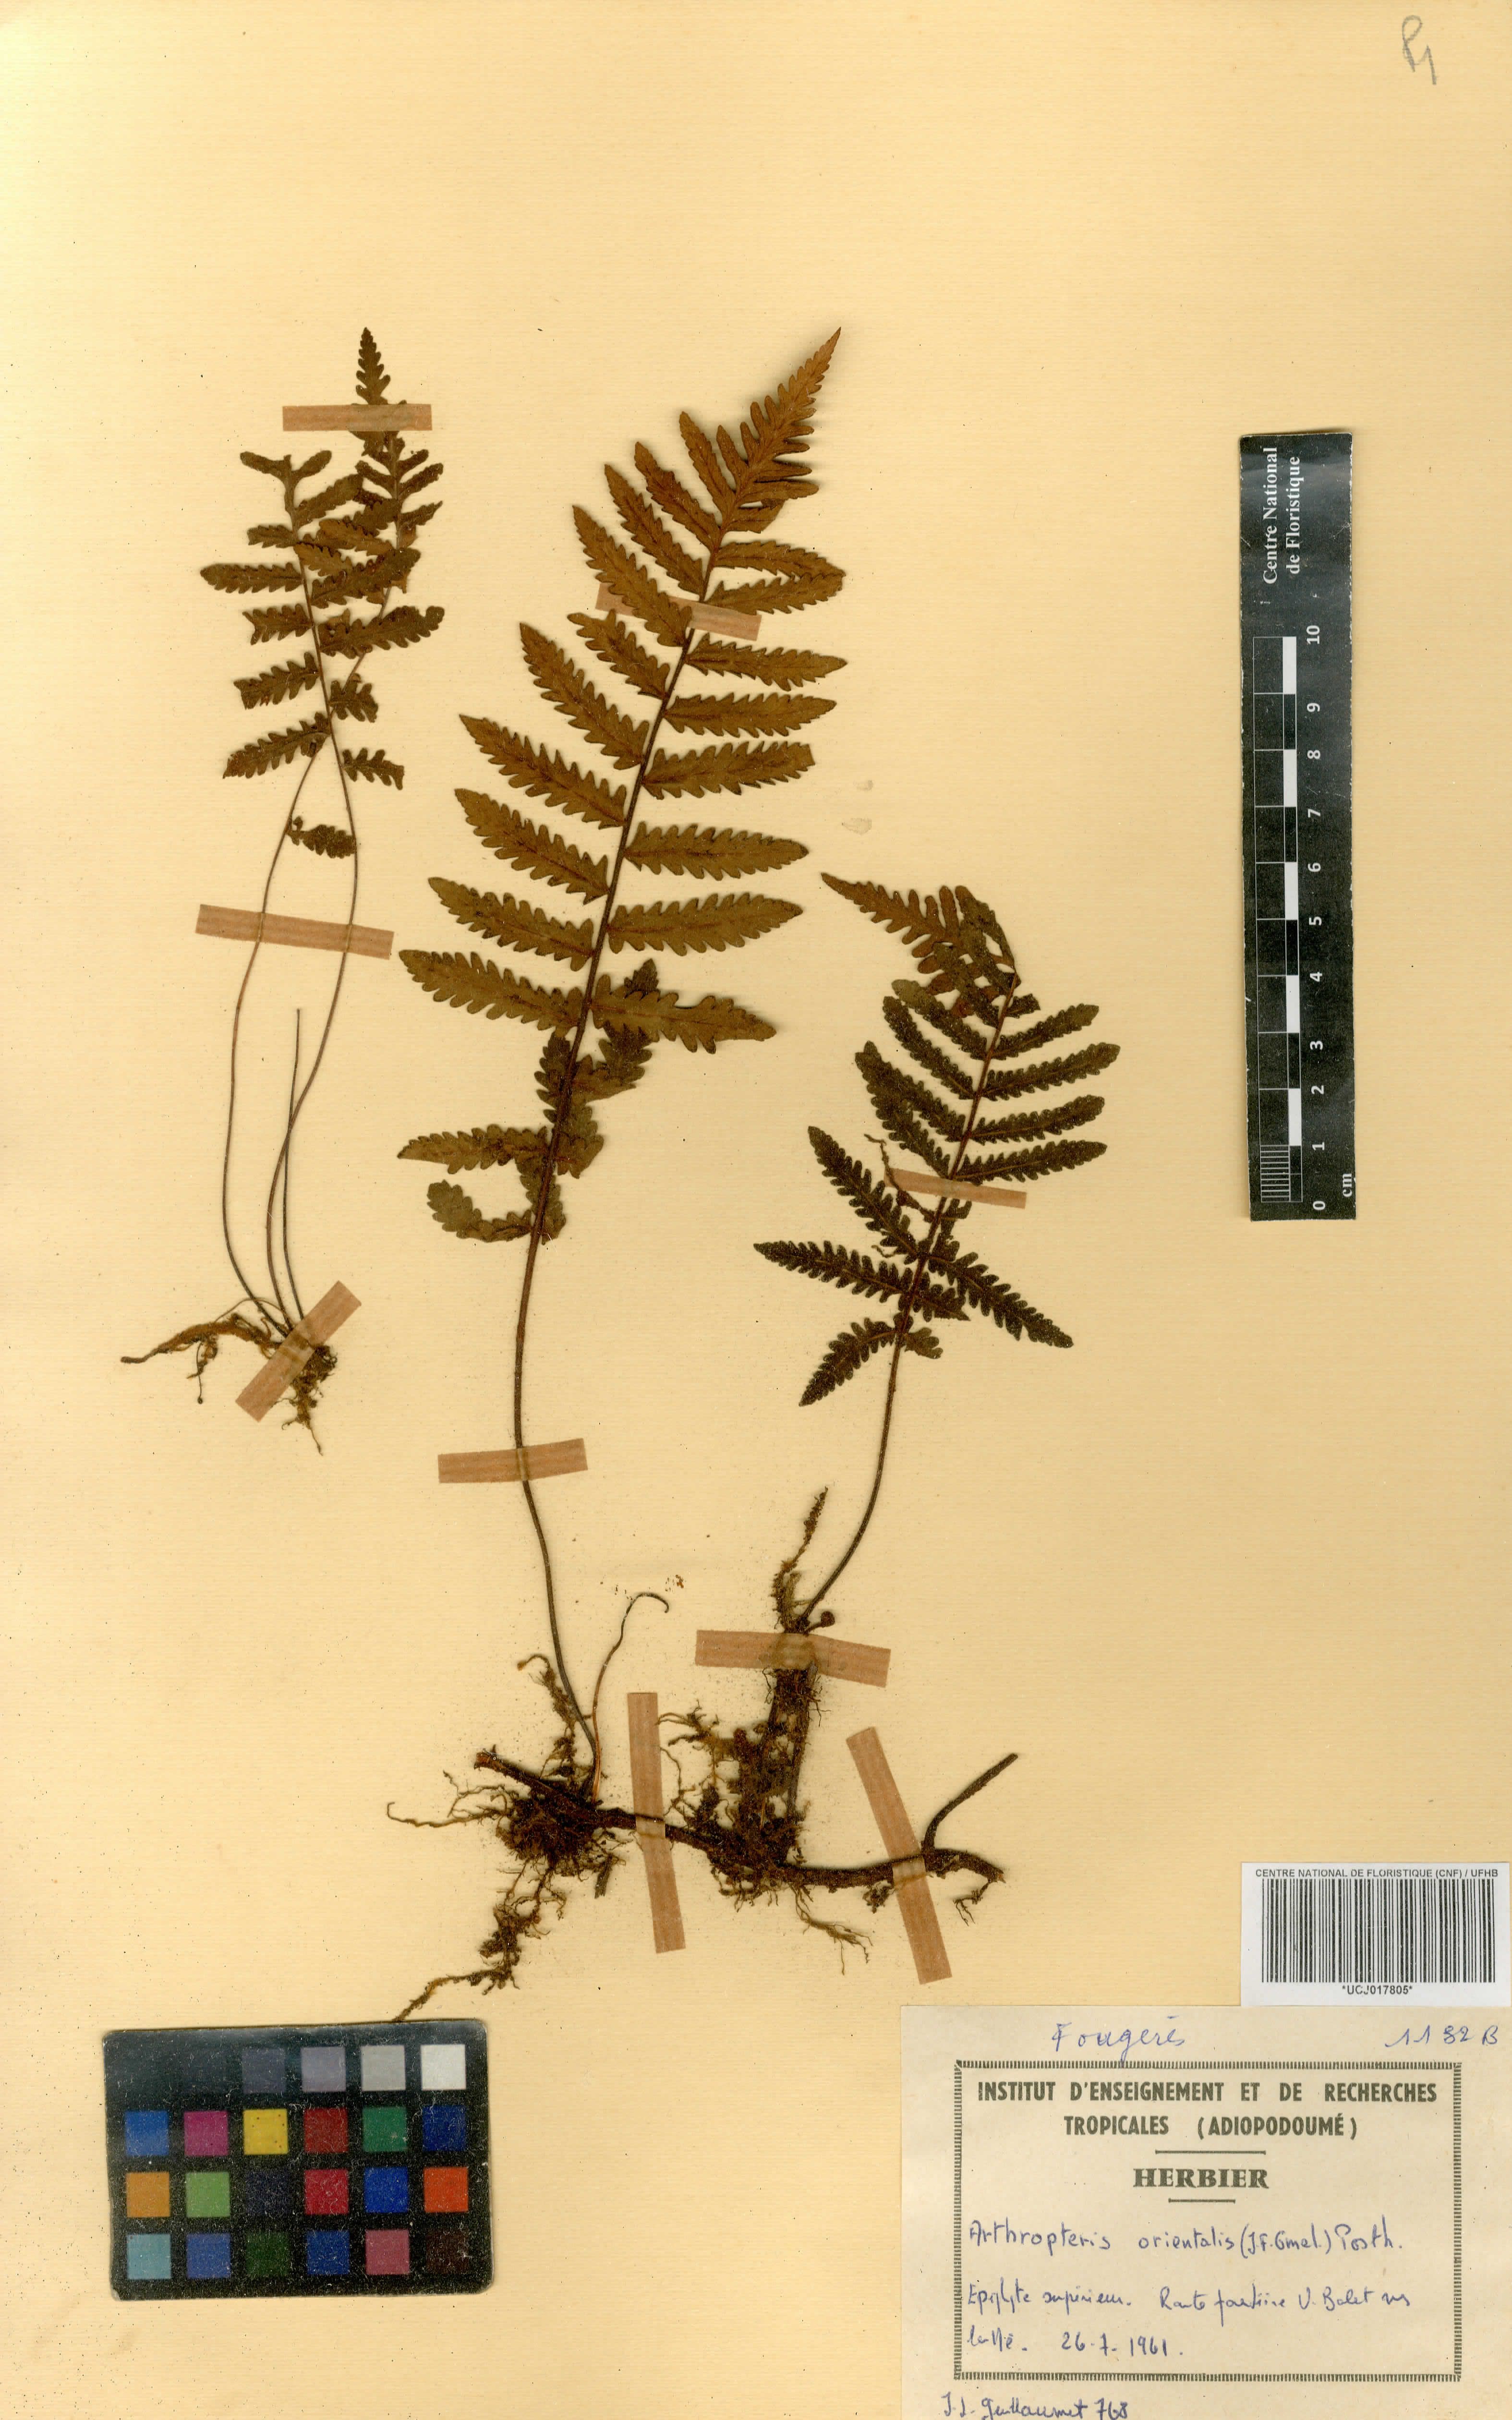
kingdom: Plantae
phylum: Tracheophyta
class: Polypodiopsida
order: Polypodiales
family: Tectariaceae
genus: Arthropteris
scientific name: Arthropteris orientalis
